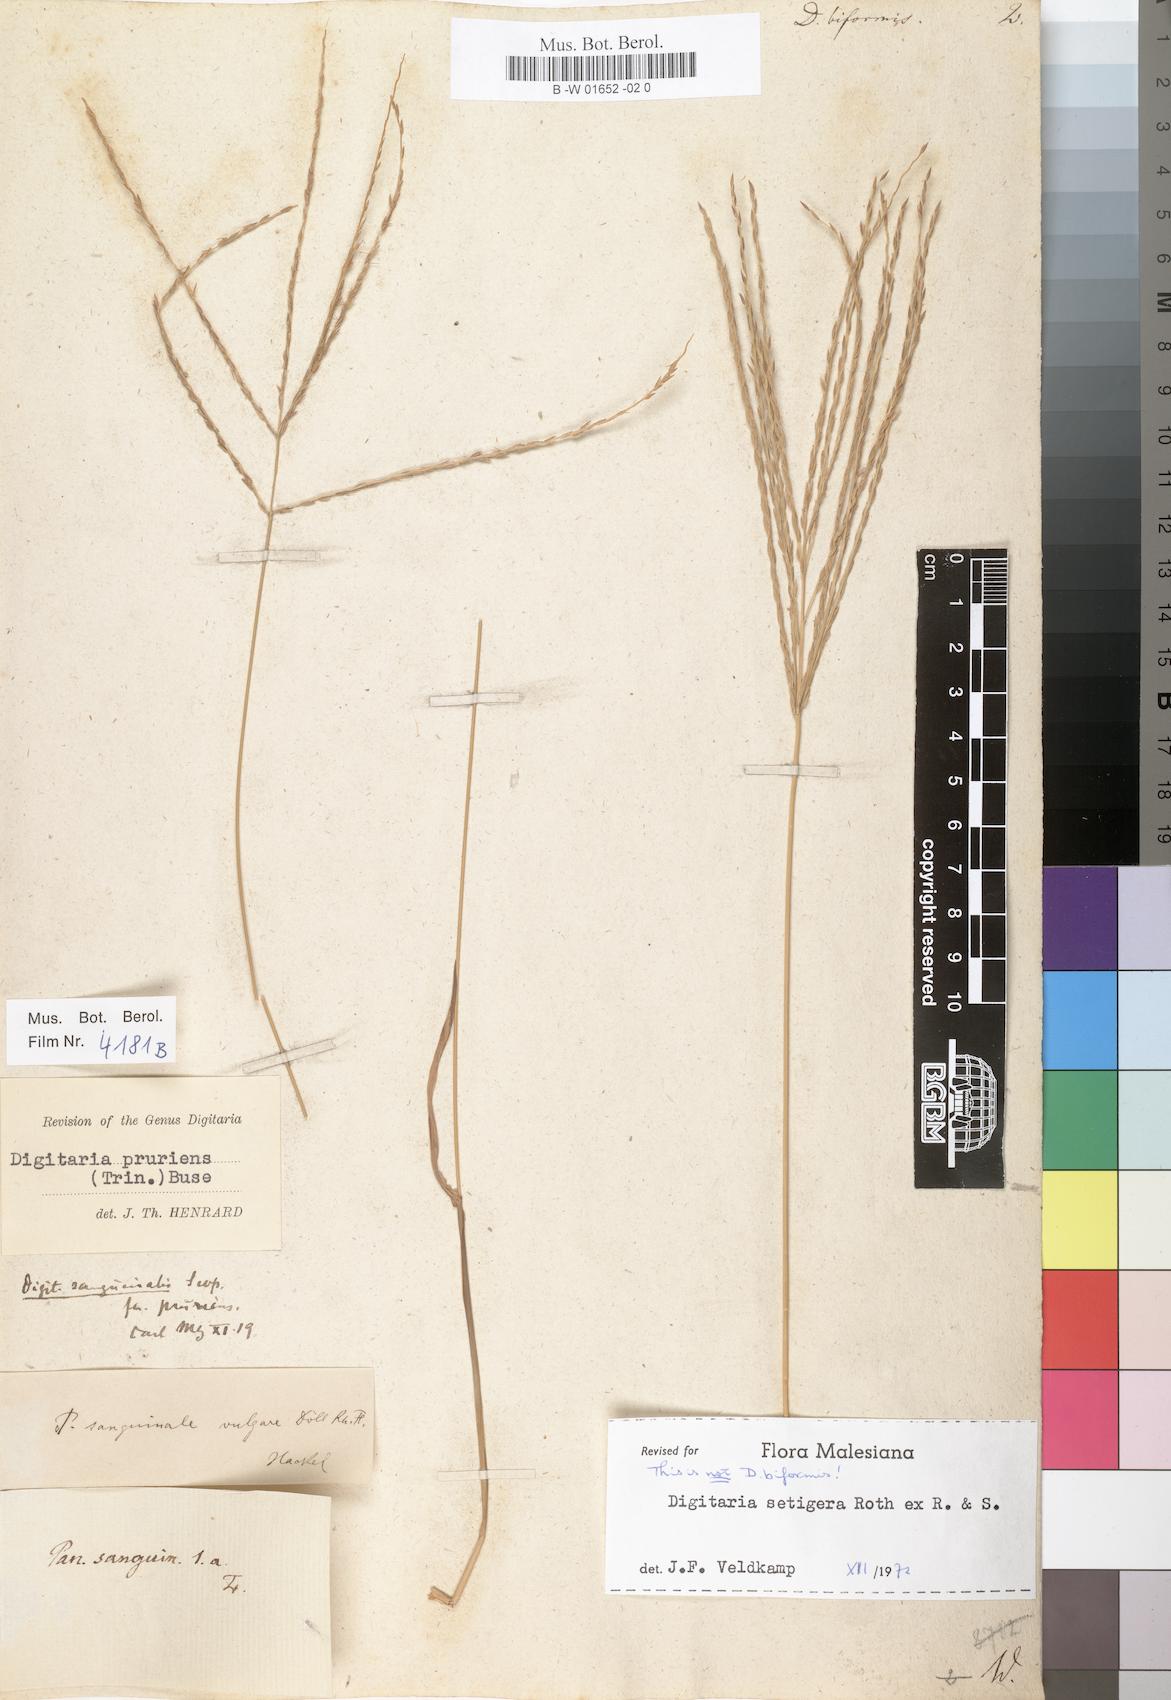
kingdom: Plantae
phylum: Tracheophyta
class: Liliopsida
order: Poales
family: Poaceae
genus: Digitaria
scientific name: Digitaria bicornis
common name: Asian crabgrass
